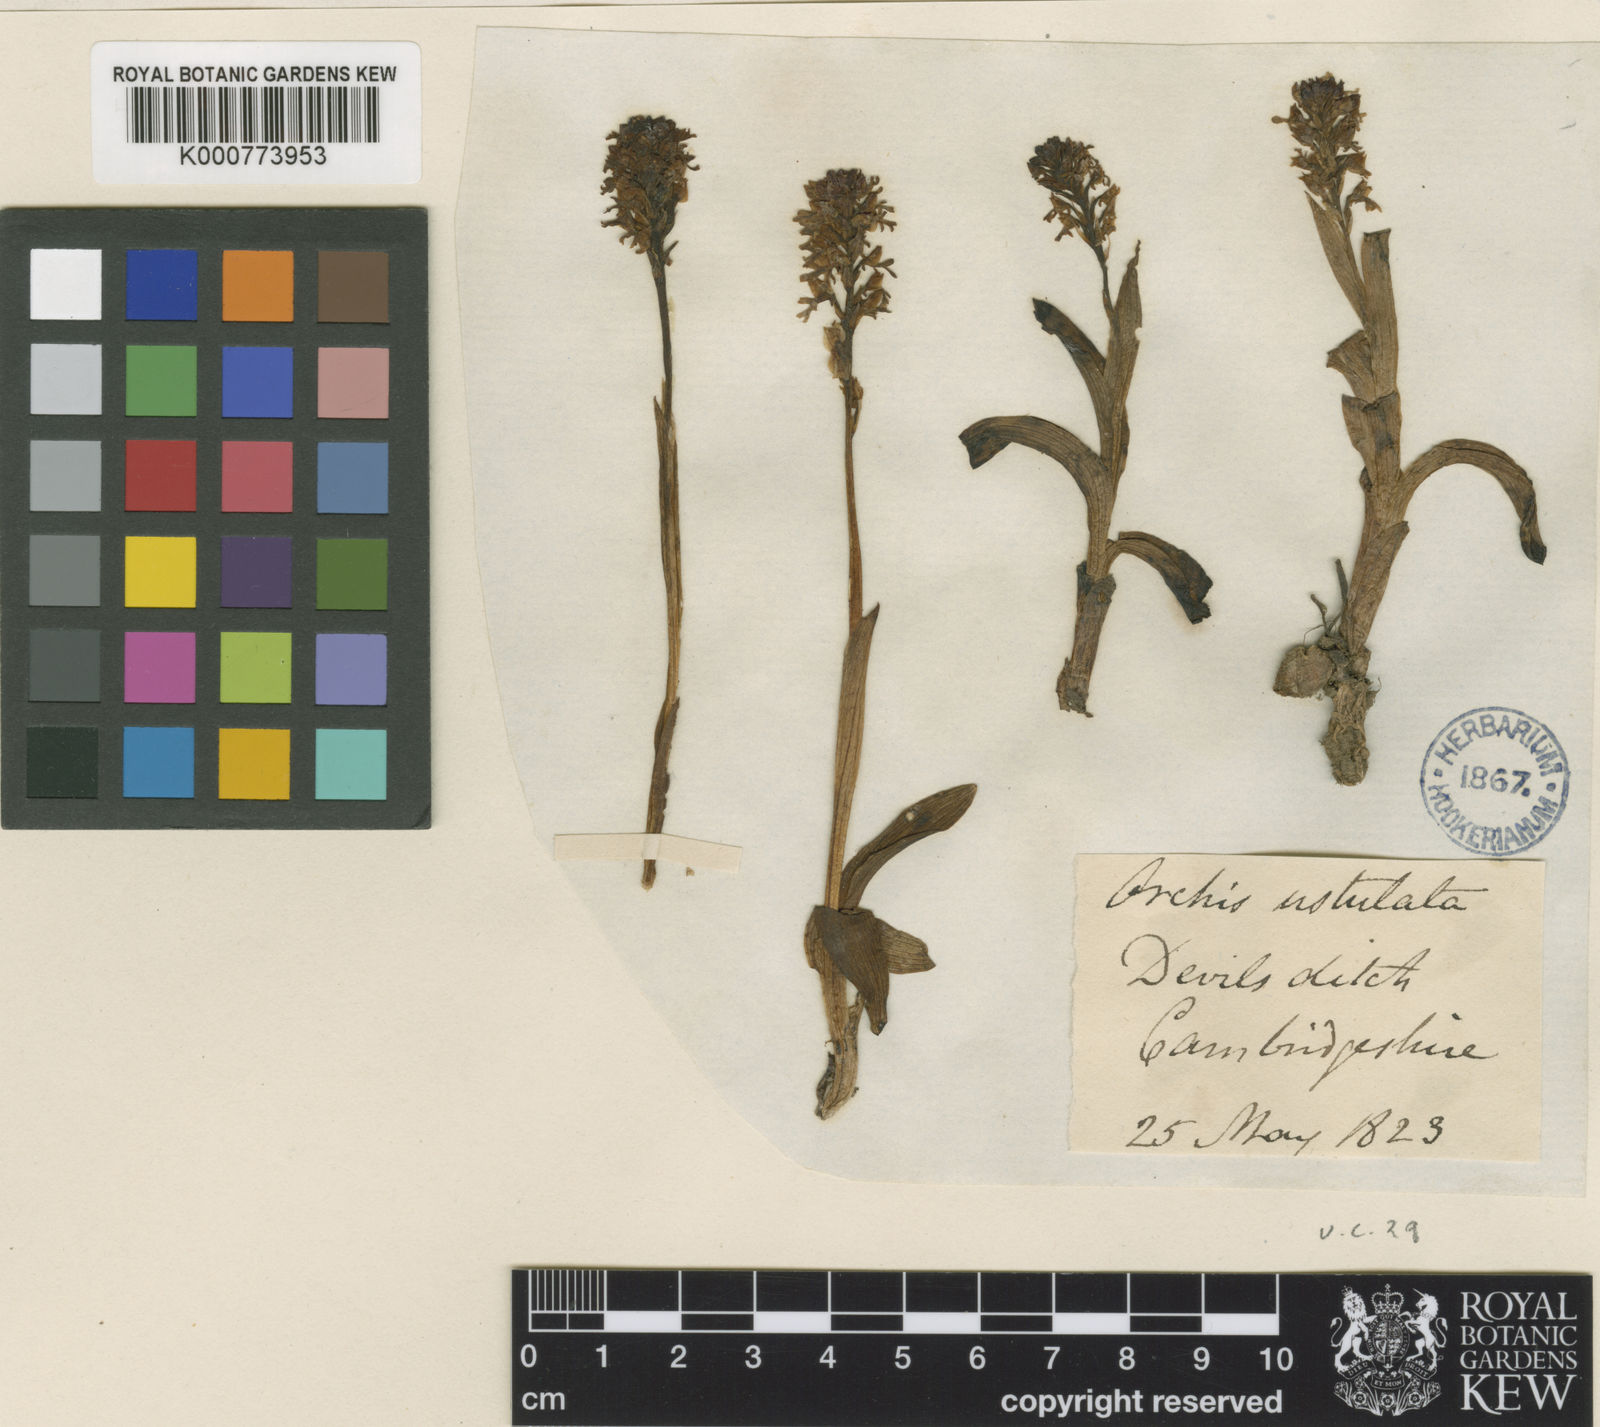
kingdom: Plantae
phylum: Tracheophyta
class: Liliopsida
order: Asparagales
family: Orchidaceae
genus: Neotinea
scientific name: Neotinea ustulata
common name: Burnt orchid
